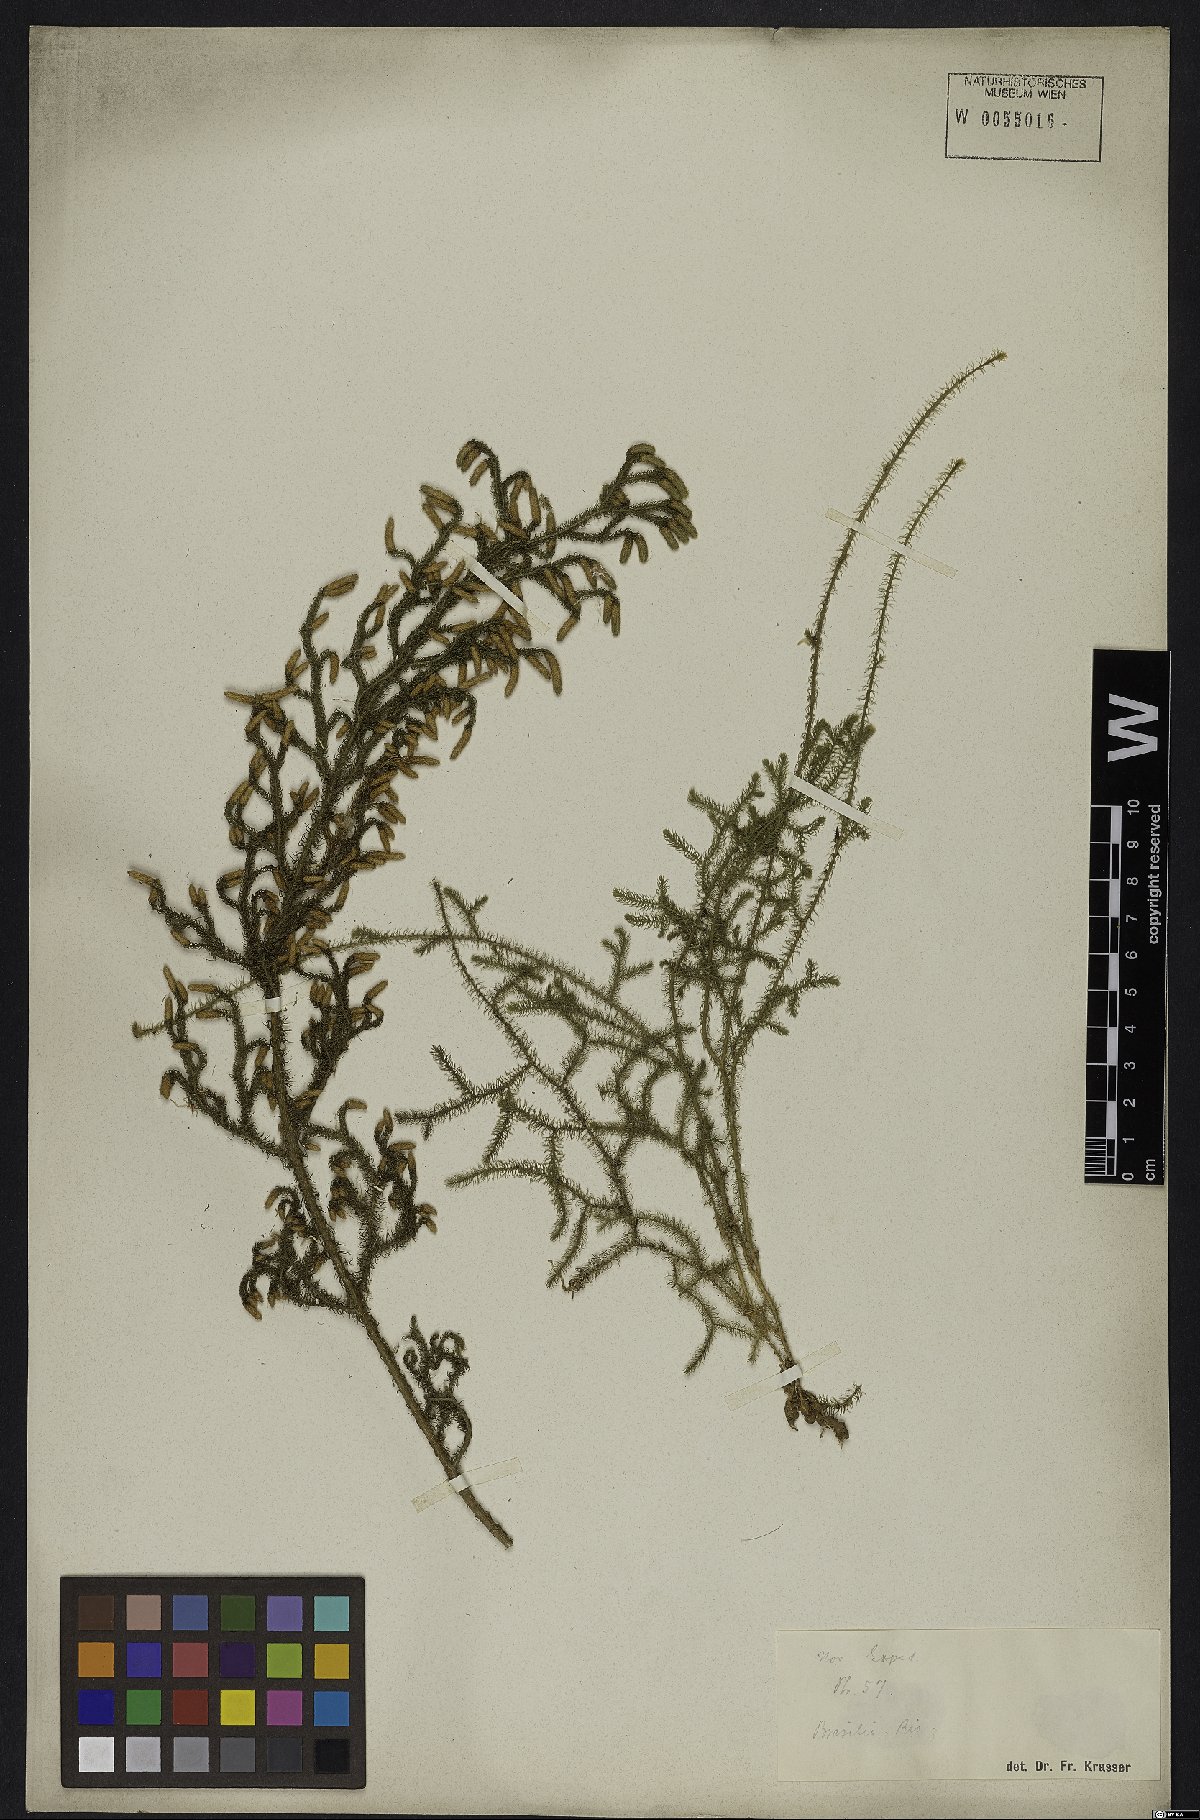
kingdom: Plantae
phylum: Tracheophyta
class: Lycopodiopsida
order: Lycopodiales
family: Lycopodiaceae
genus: Lycopodium
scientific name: Lycopodium
